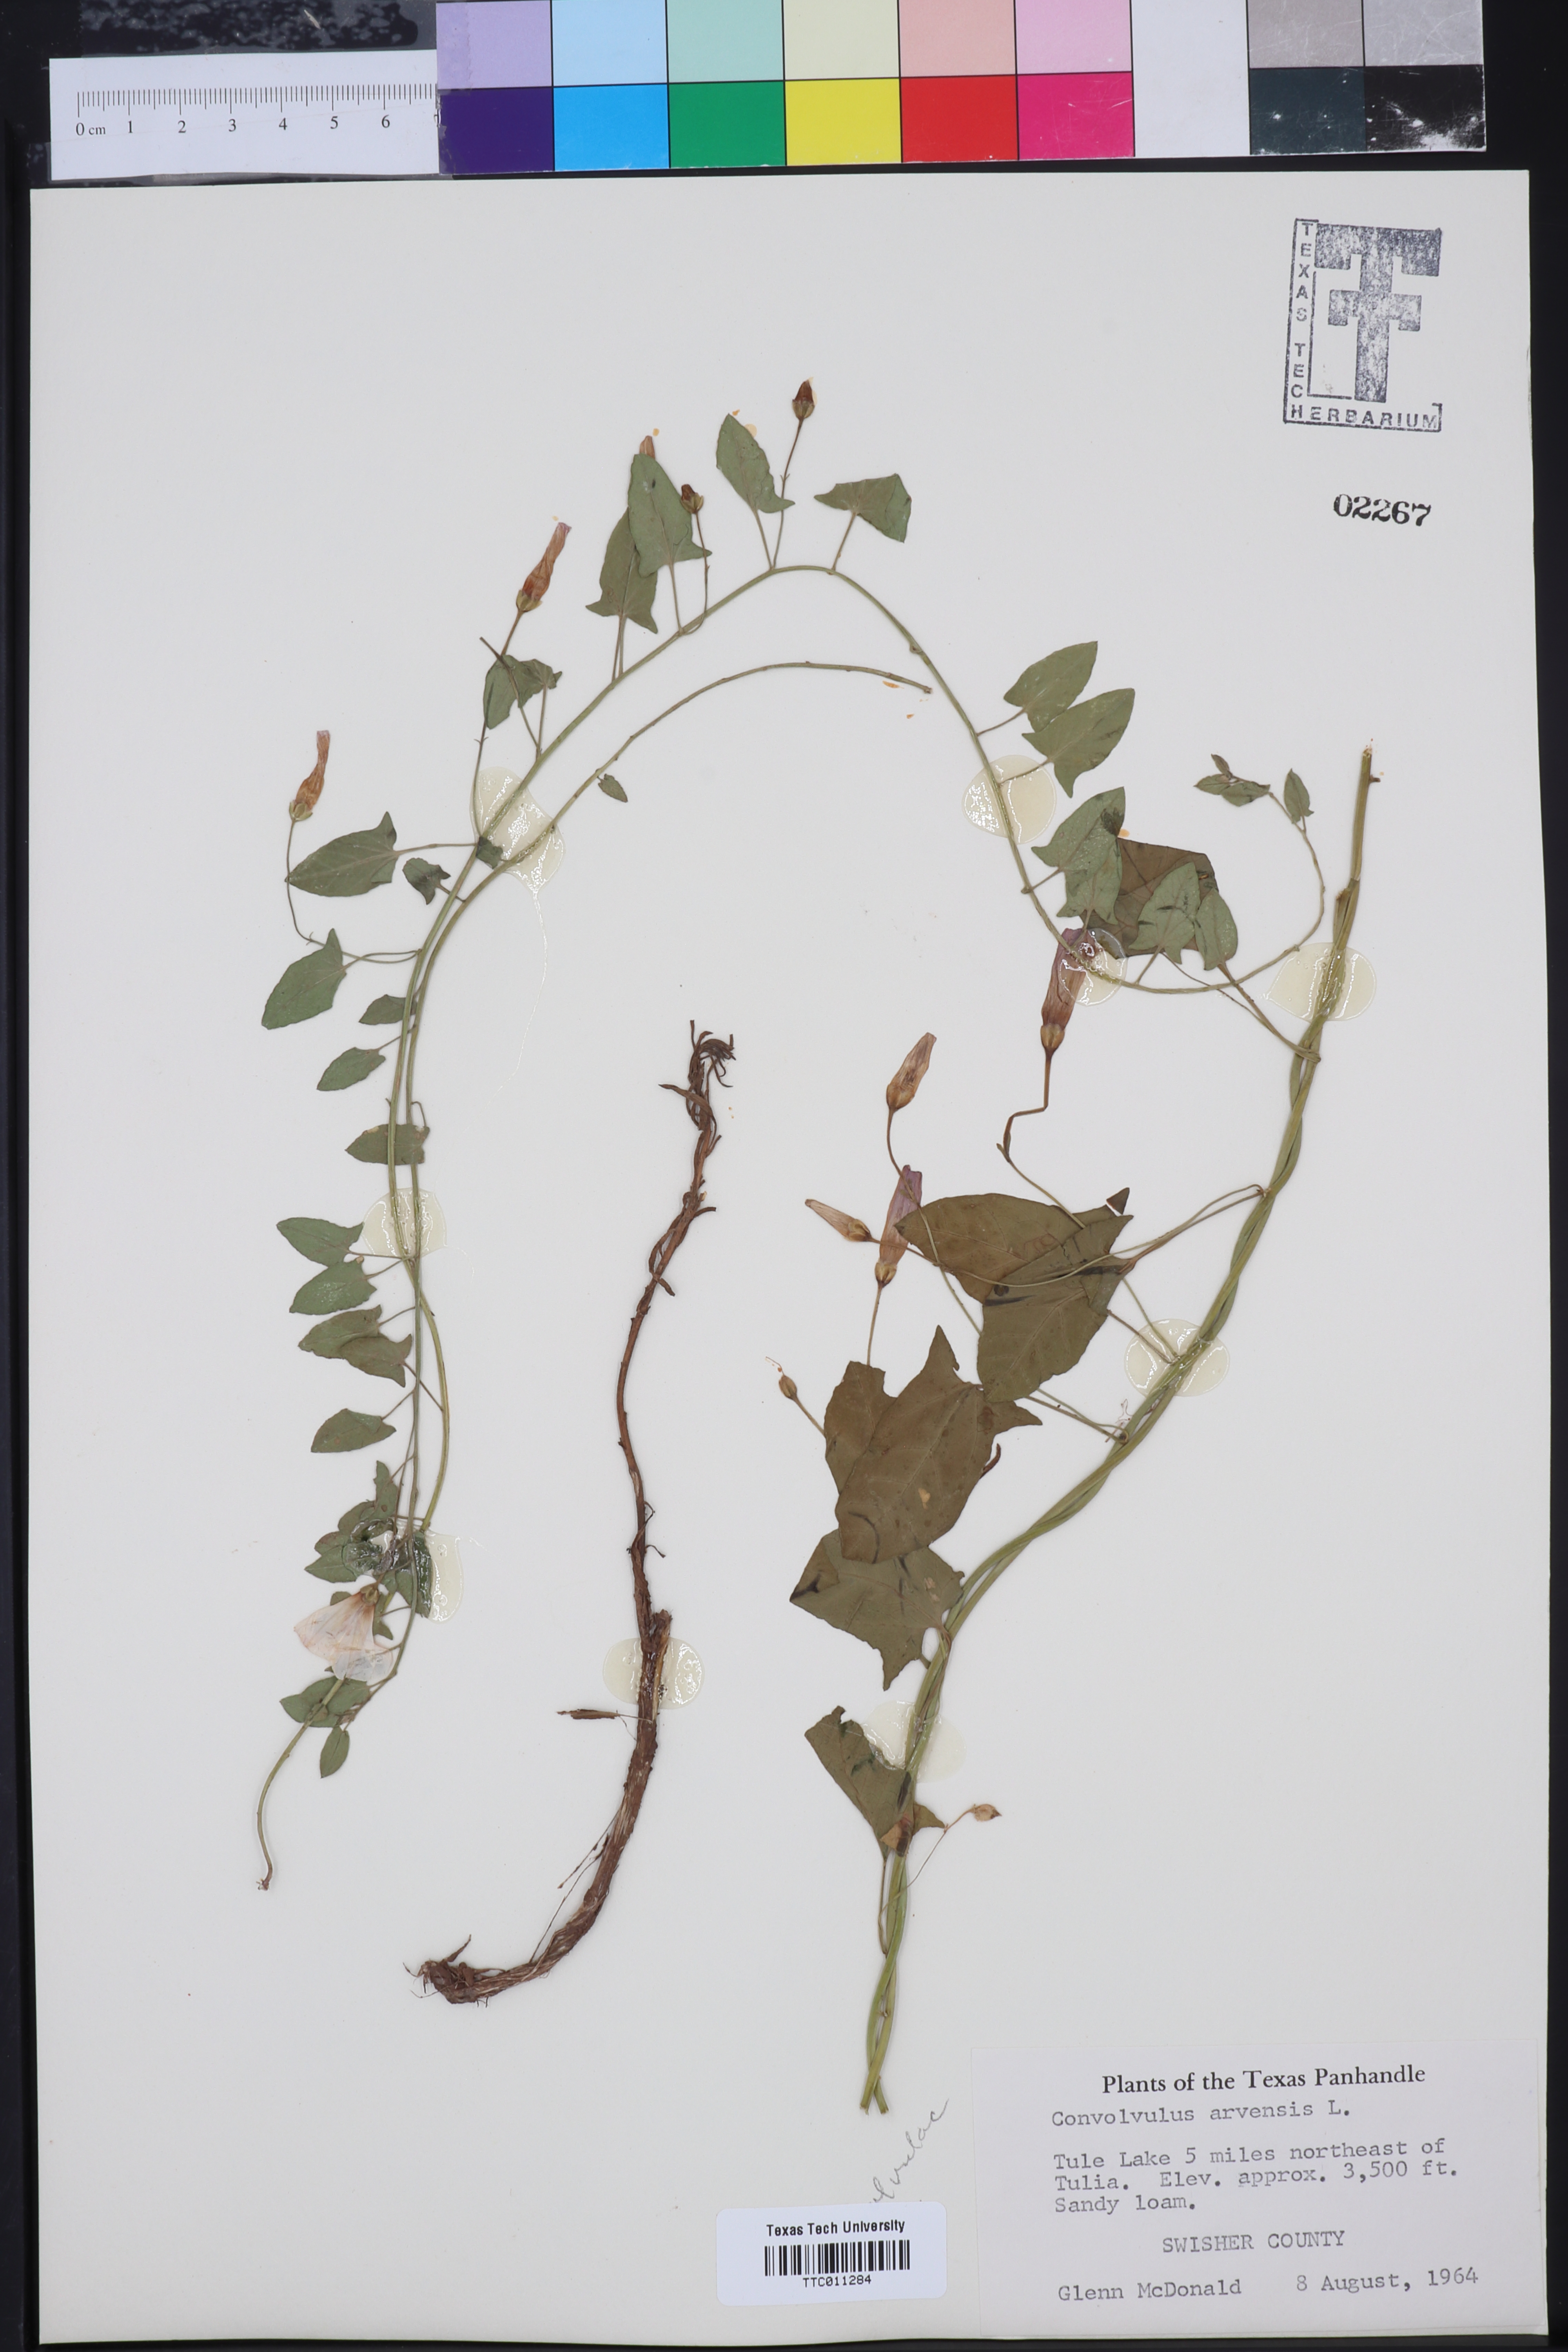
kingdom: Plantae
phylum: Tracheophyta
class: Magnoliopsida
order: Solanales
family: Convolvulaceae
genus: Convolvulus
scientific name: Convolvulus arvensis
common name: Field bindweed
